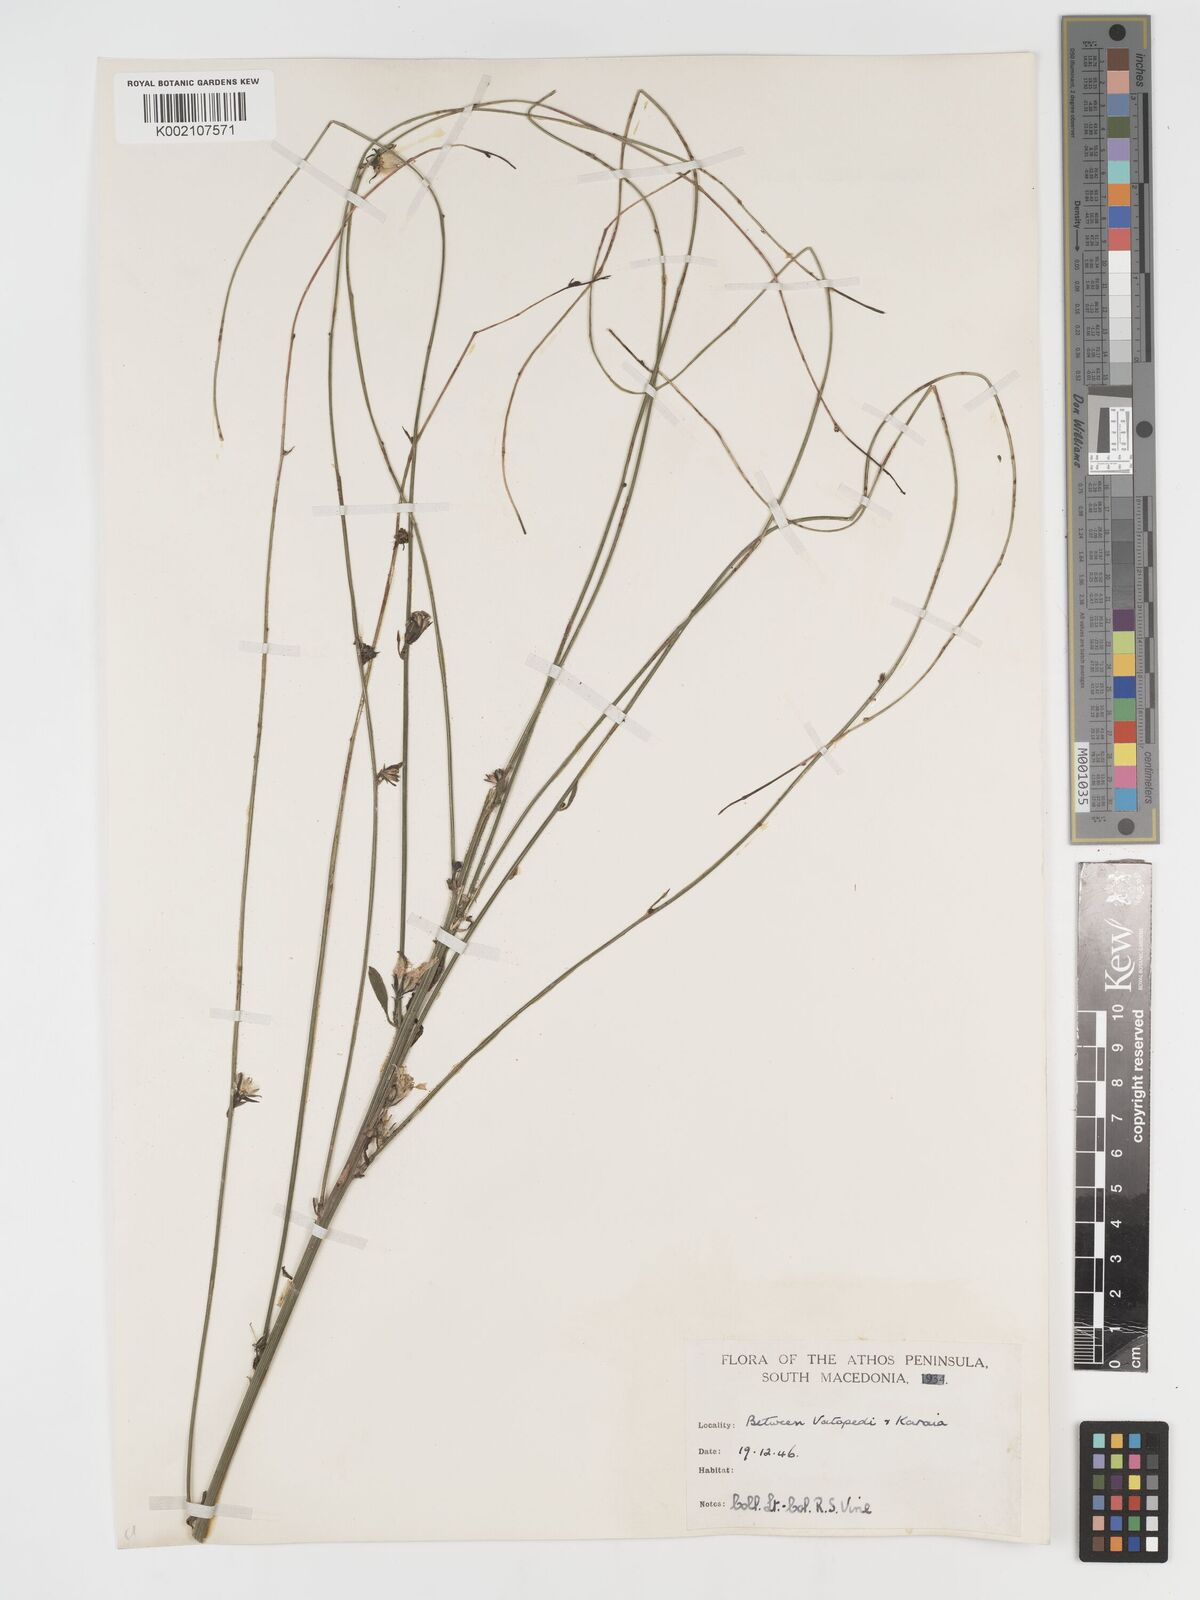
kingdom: Plantae
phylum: Tracheophyta
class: Magnoliopsida
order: Asterales
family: Asteraceae
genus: Crepis
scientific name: Crepis pulchra
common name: Hawk's-beard
